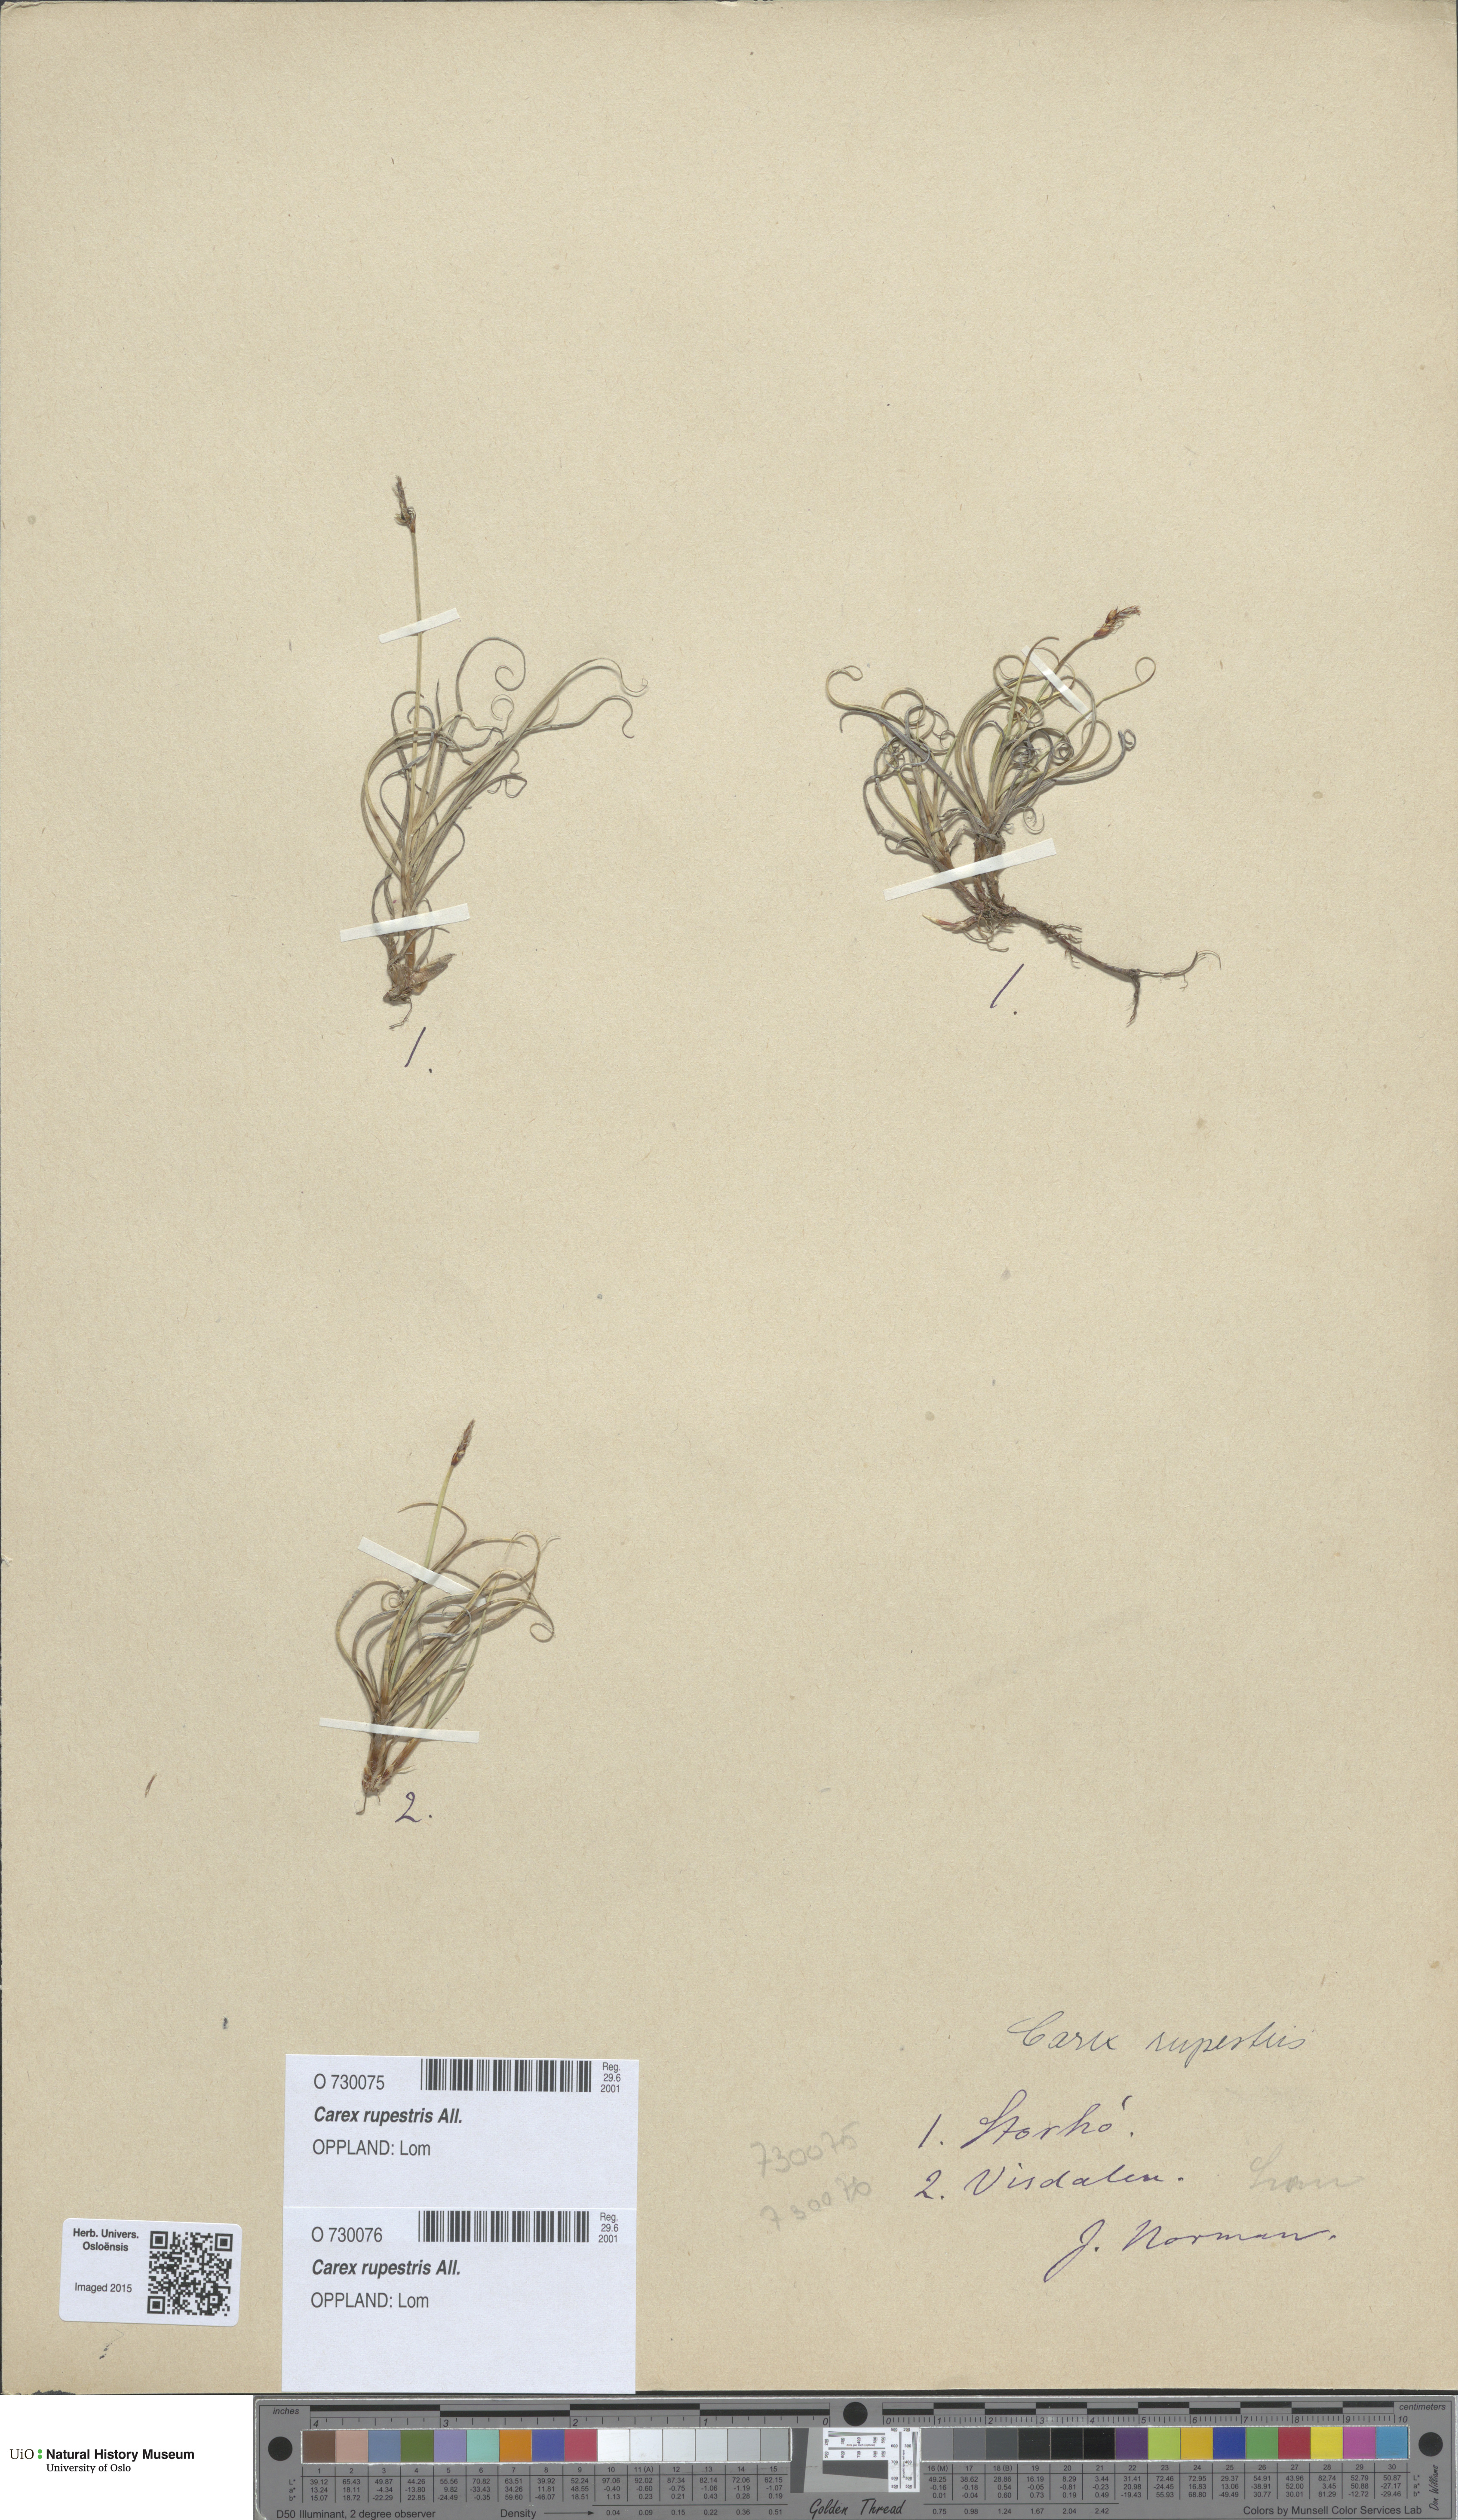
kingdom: Plantae
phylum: Tracheophyta
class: Liliopsida
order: Poales
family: Cyperaceae
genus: Carex
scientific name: Carex rupestris
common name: Rock sedge
